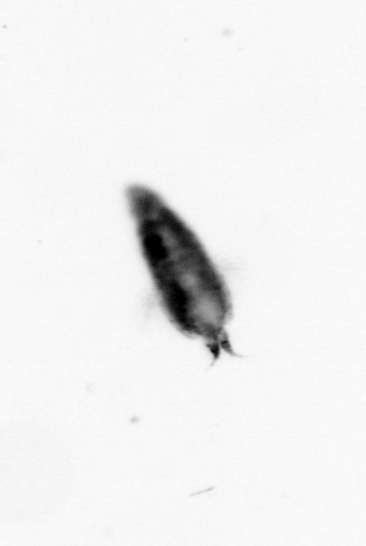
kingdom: Animalia
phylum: Arthropoda
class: Copepoda
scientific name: Copepoda
